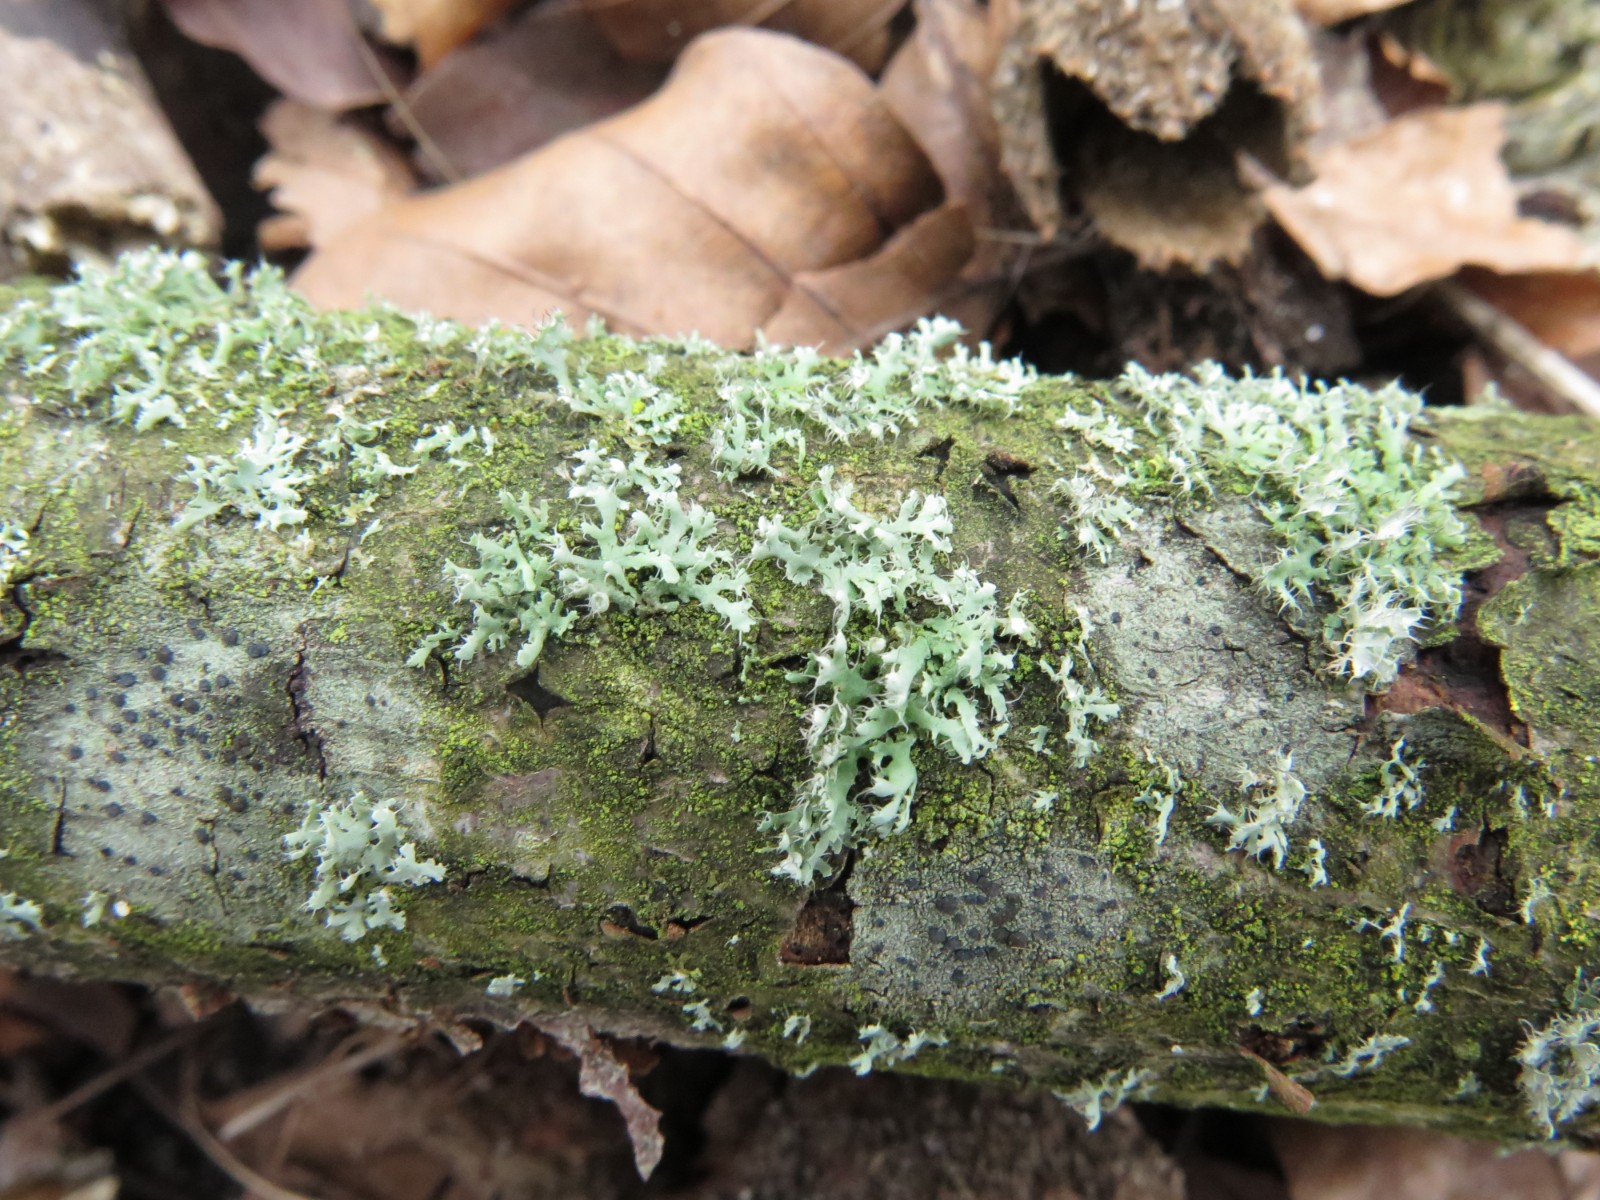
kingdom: Fungi
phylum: Ascomycota
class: Lecanoromycetes
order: Caliciales
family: Physciaceae
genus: Physcia
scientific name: Physcia tenella
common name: spæd rosetlav
